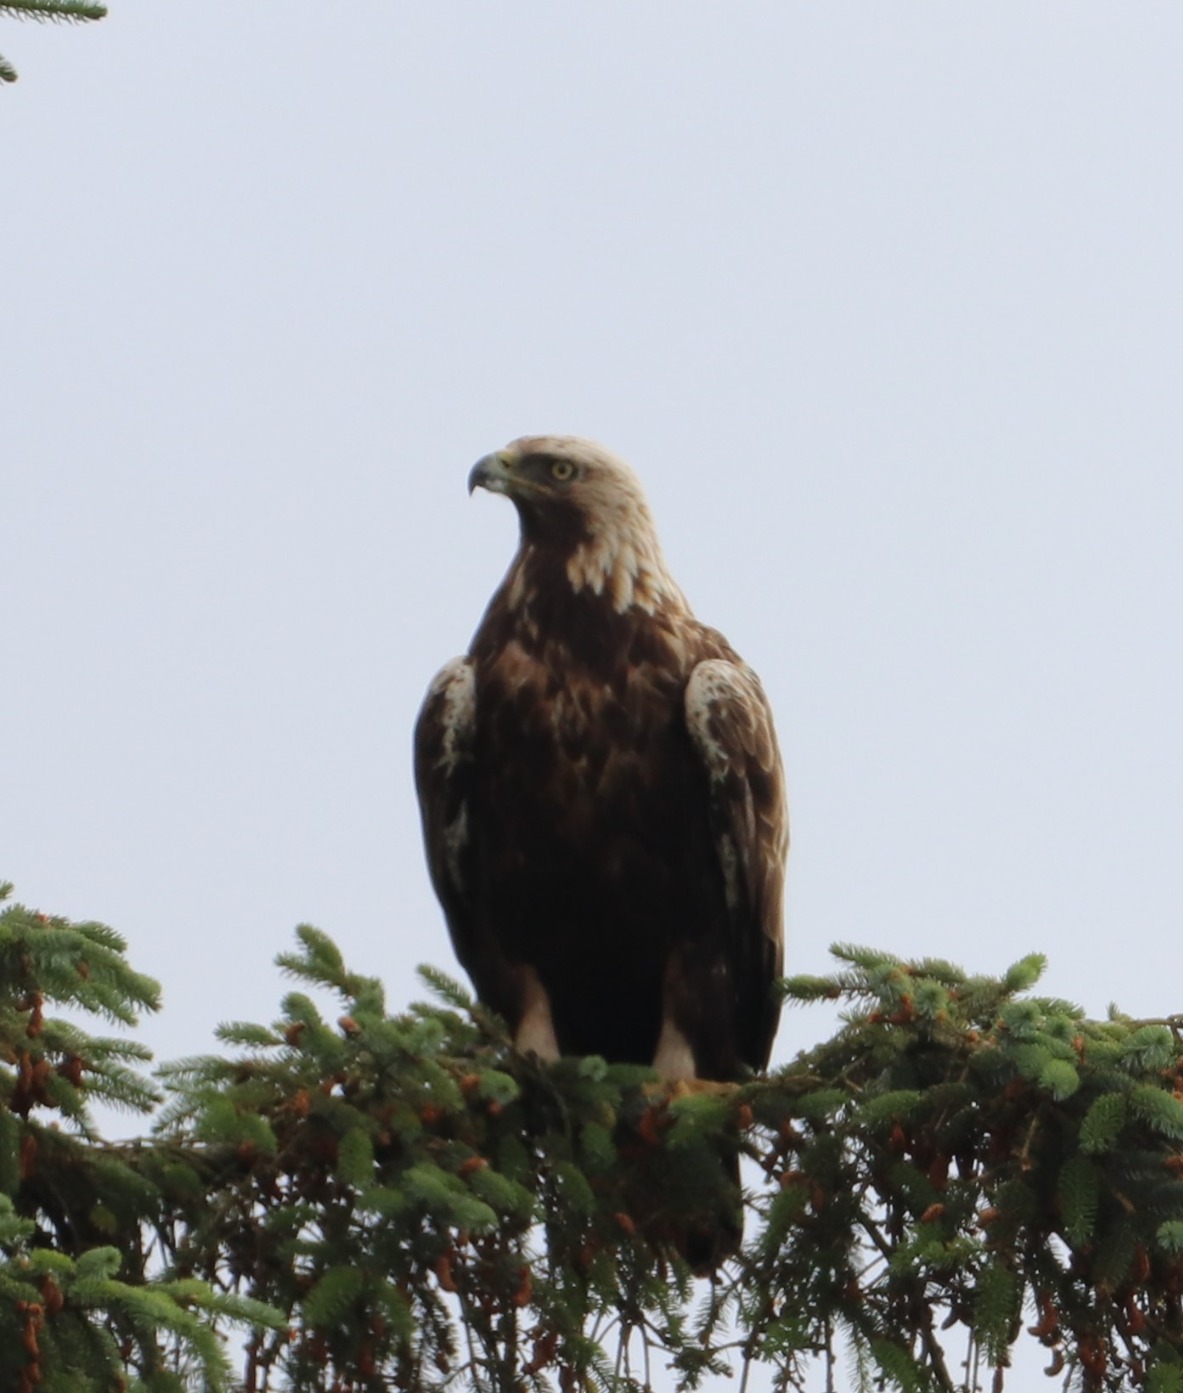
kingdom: Animalia
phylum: Chordata
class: Aves
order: Accipitriformes
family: Accipitridae
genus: Aquila
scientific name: Aquila chrysaetos
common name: Kongeørn
